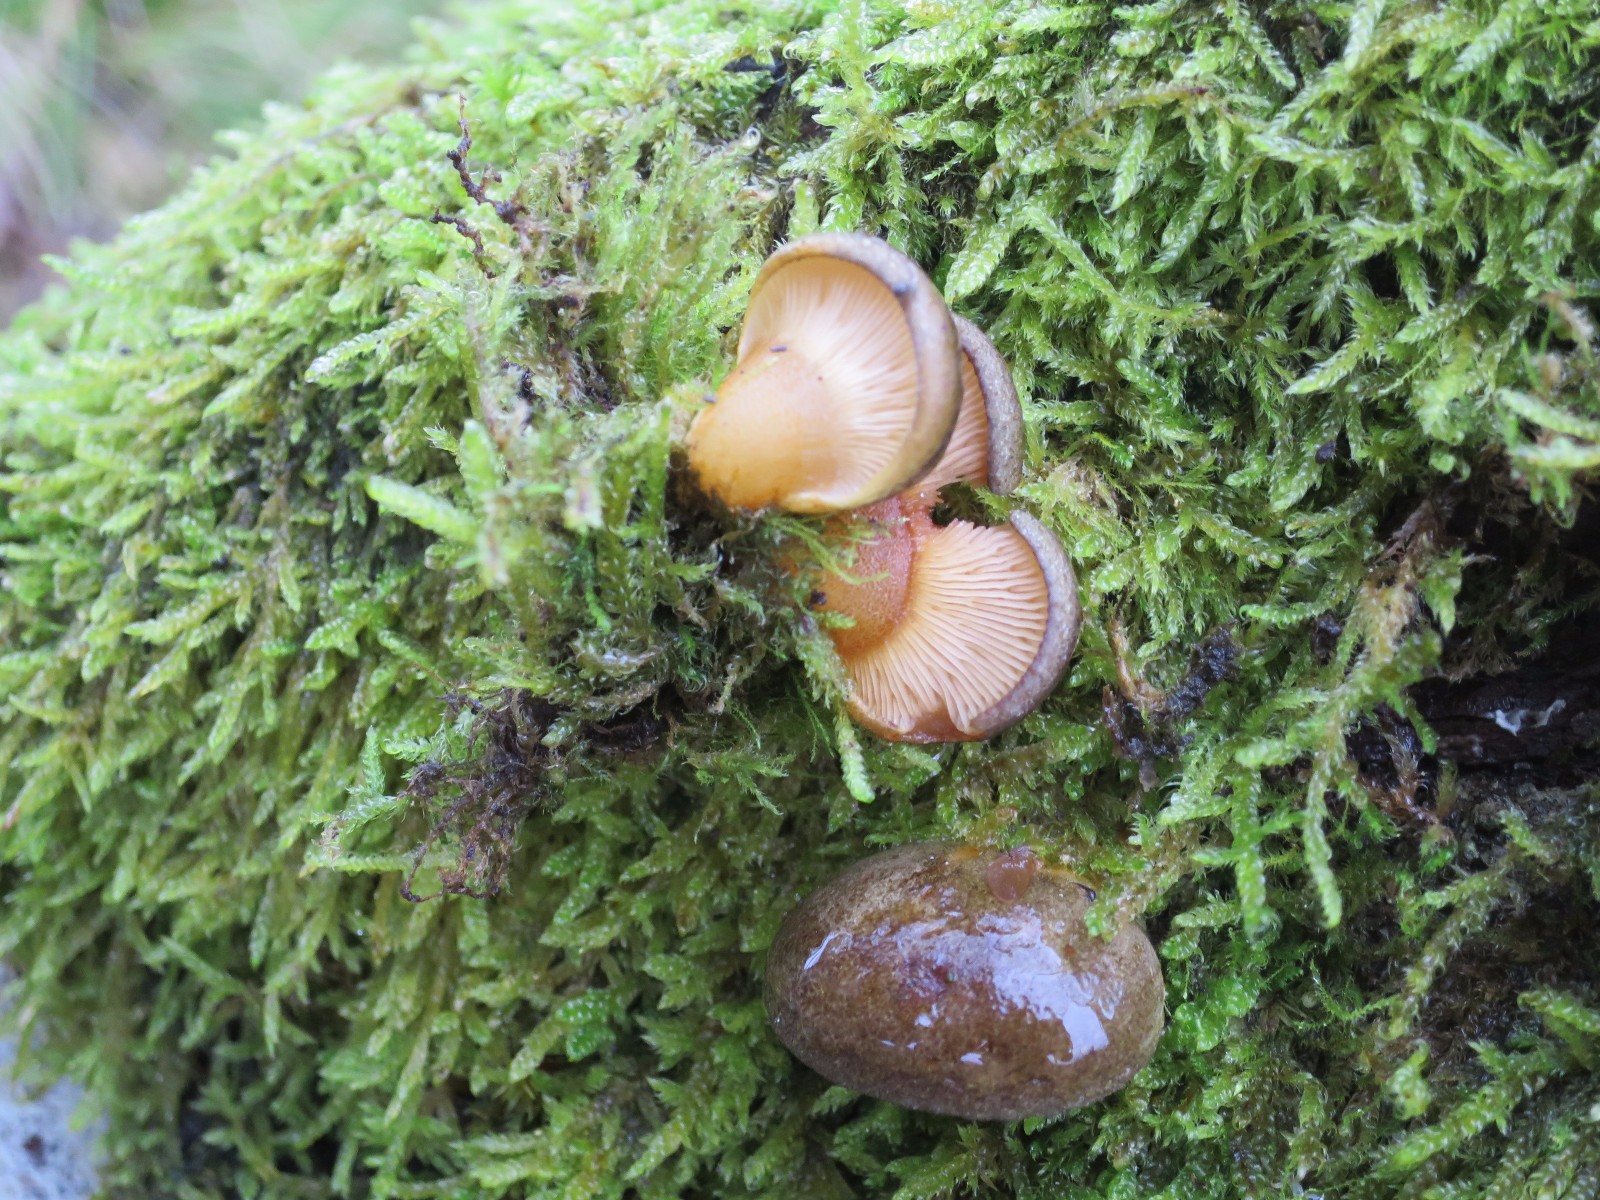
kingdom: Fungi
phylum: Basidiomycota
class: Agaricomycetes
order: Agaricales
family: Sarcomyxaceae
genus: Sarcomyxa
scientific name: Sarcomyxa serotina
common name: gummihat
